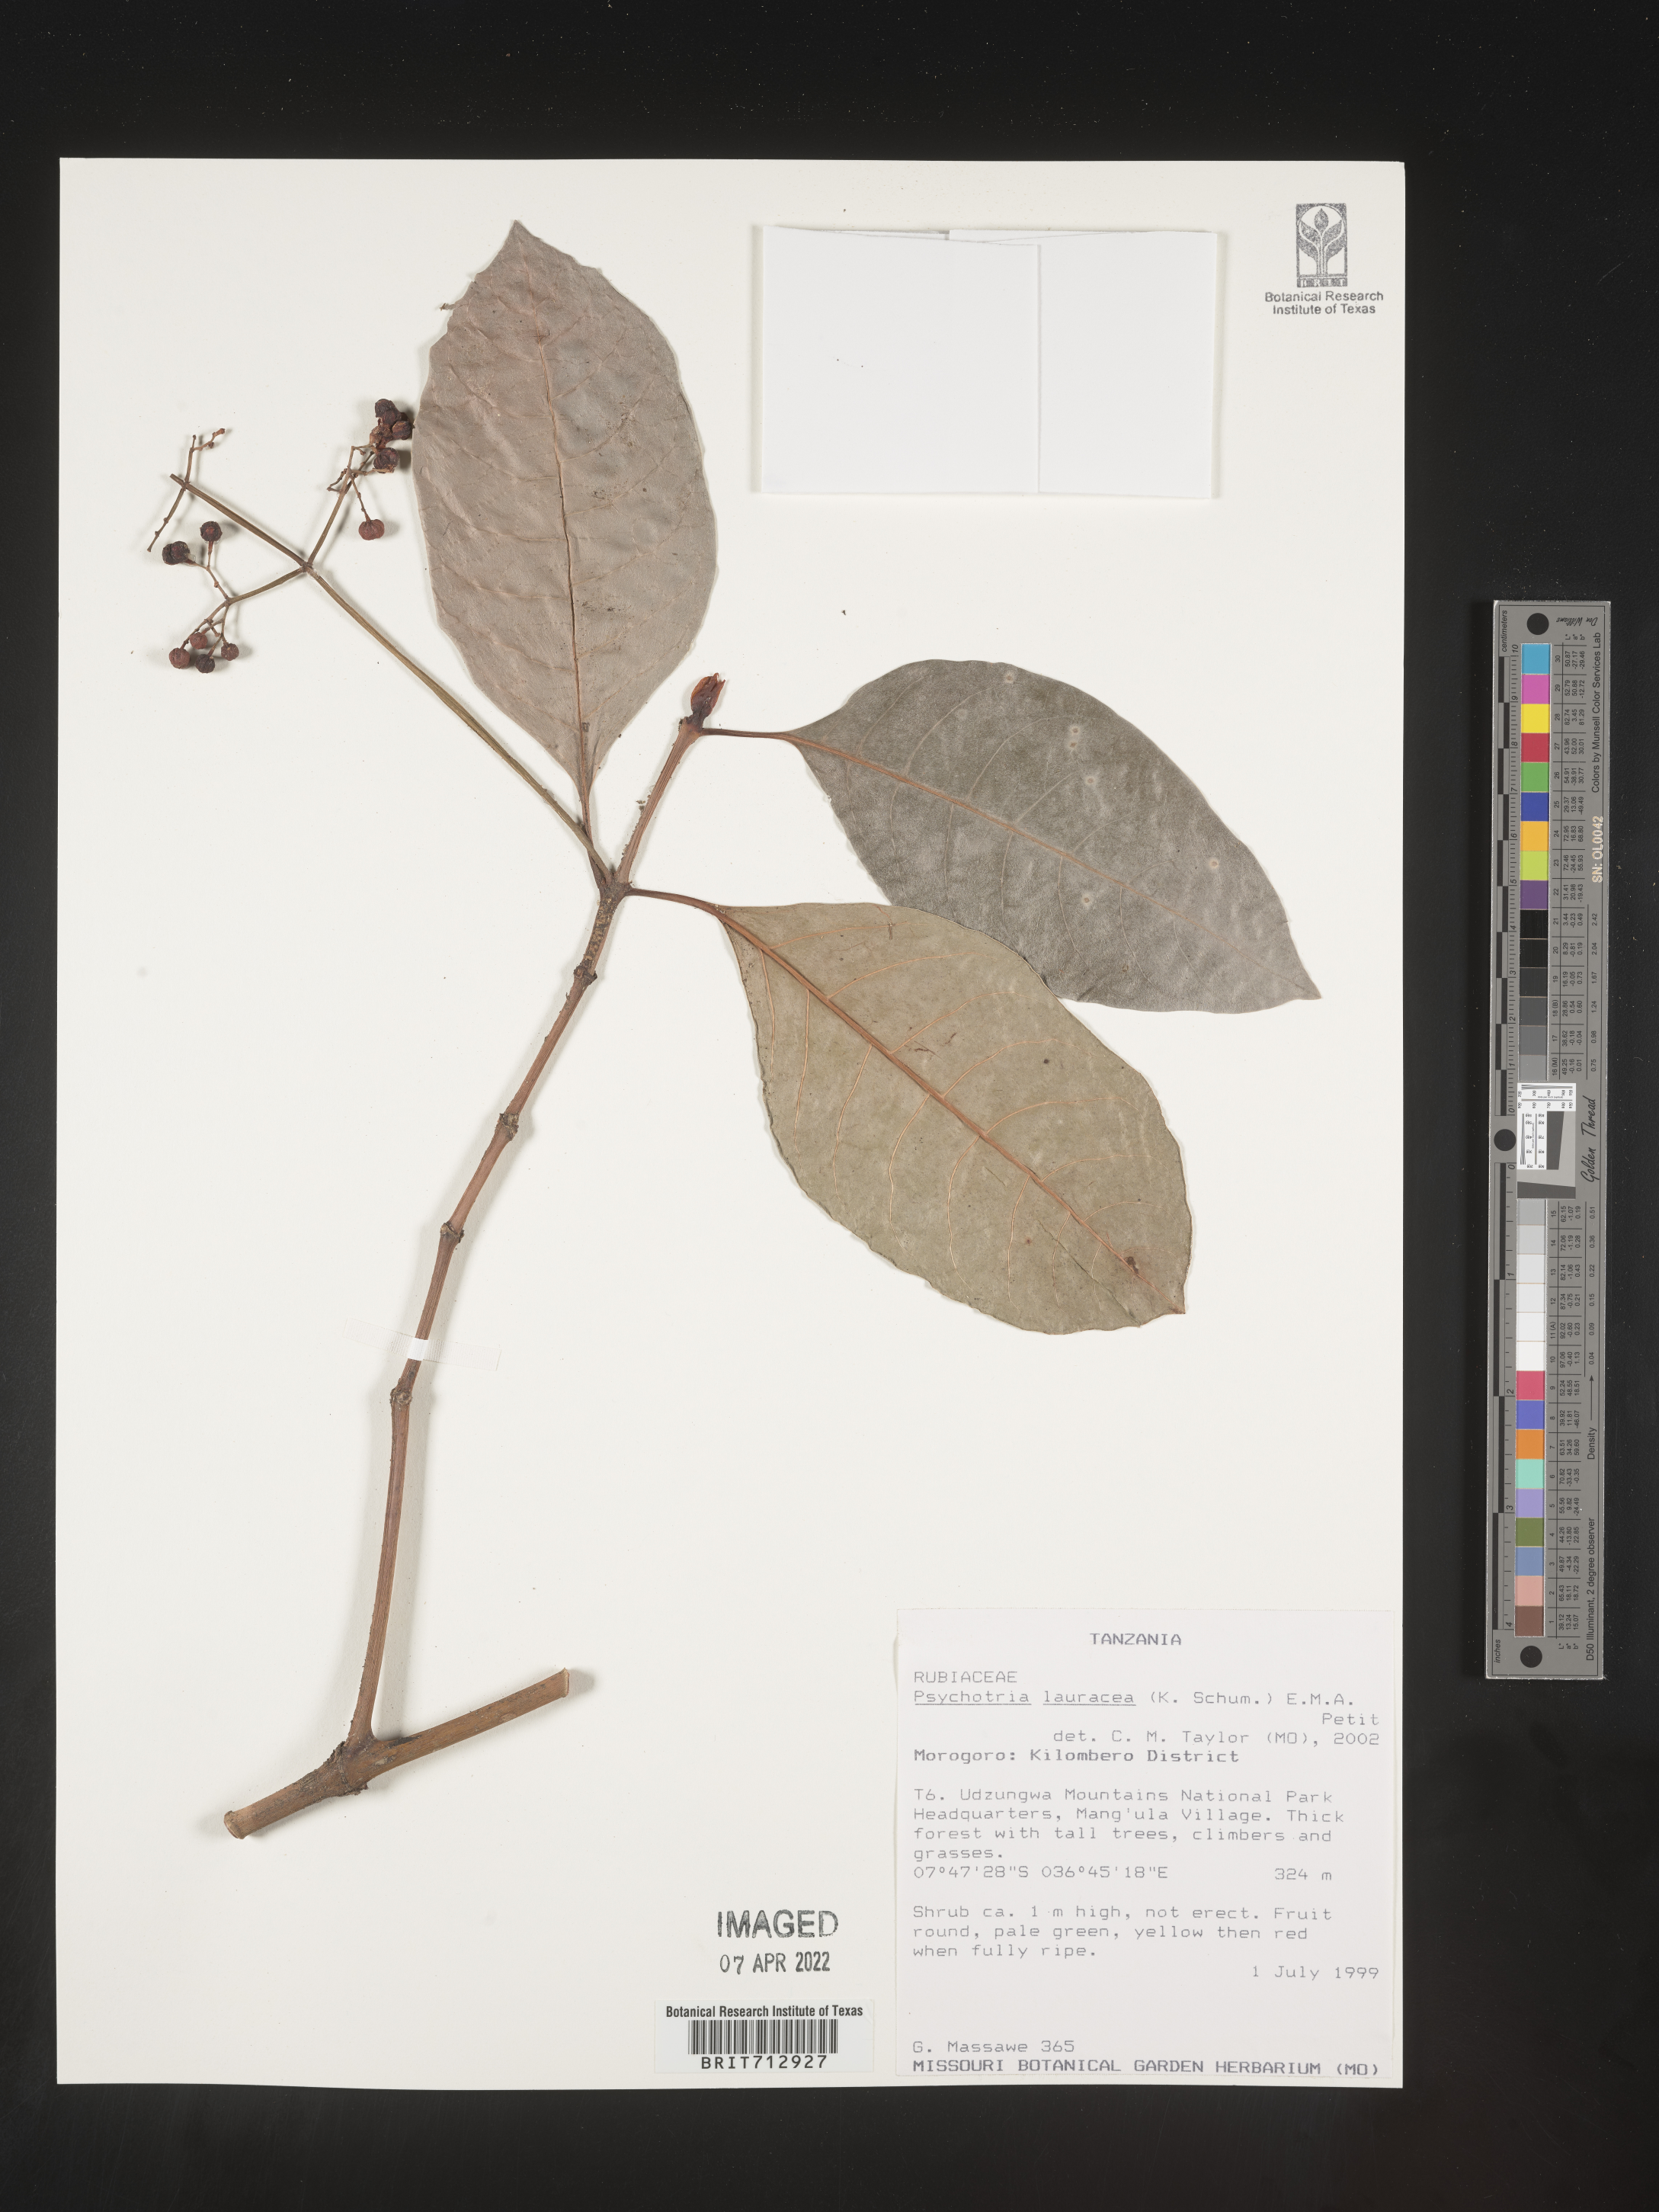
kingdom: Plantae
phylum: Tracheophyta
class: Magnoliopsida
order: Gentianales
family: Rubiaceae
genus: Psychotria
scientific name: Psychotria lauracea
